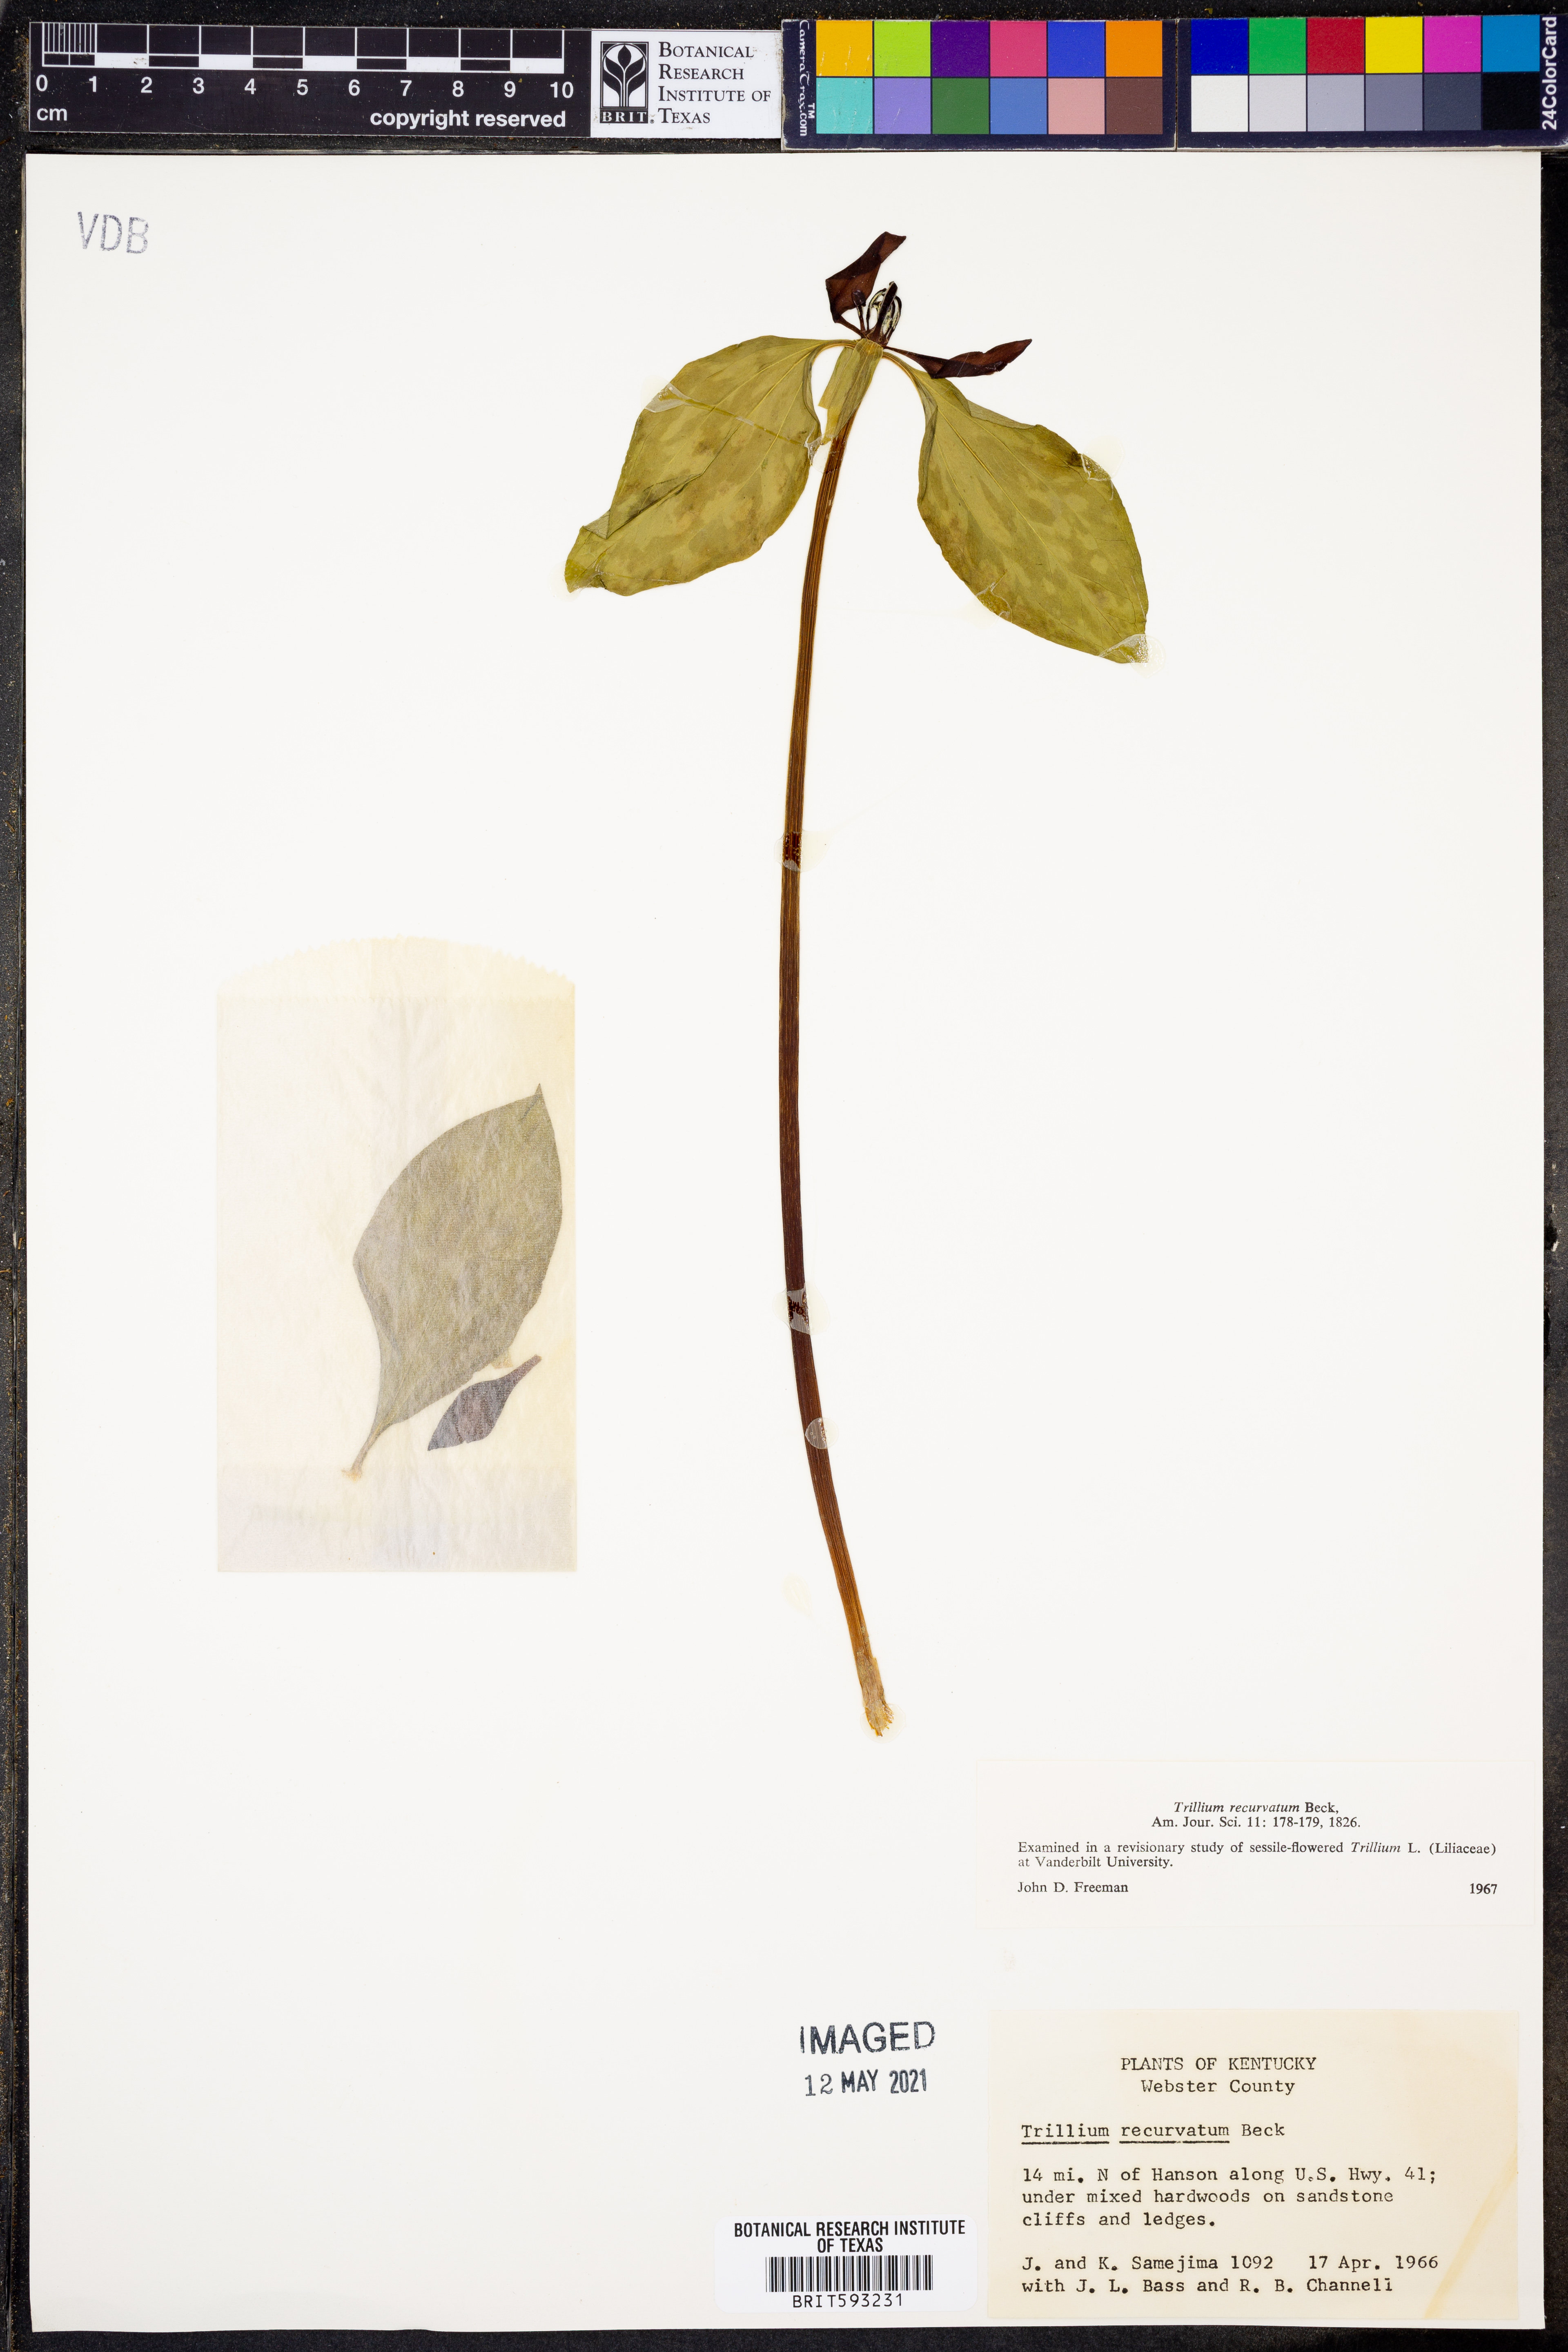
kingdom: Plantae
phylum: Tracheophyta
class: Liliopsida
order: Liliales
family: Melanthiaceae
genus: Trillium
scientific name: Trillium recurvatum
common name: Bloody butcher
